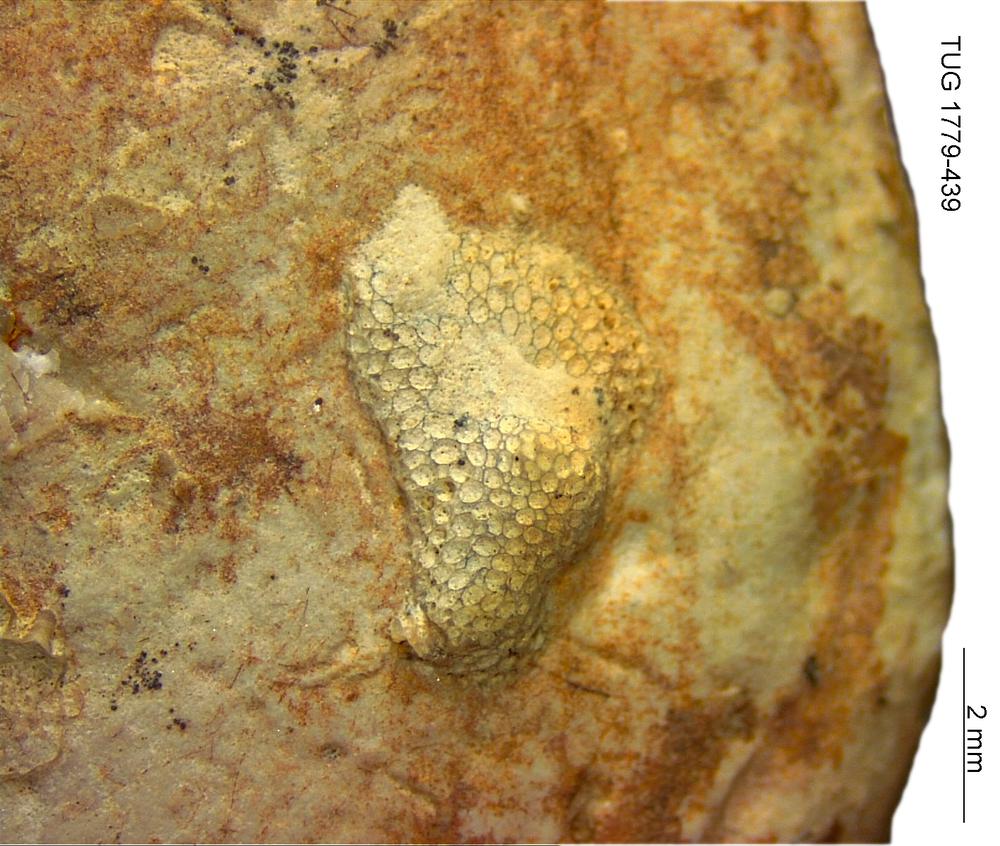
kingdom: Animalia
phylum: Bryozoa
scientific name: Bryozoa
